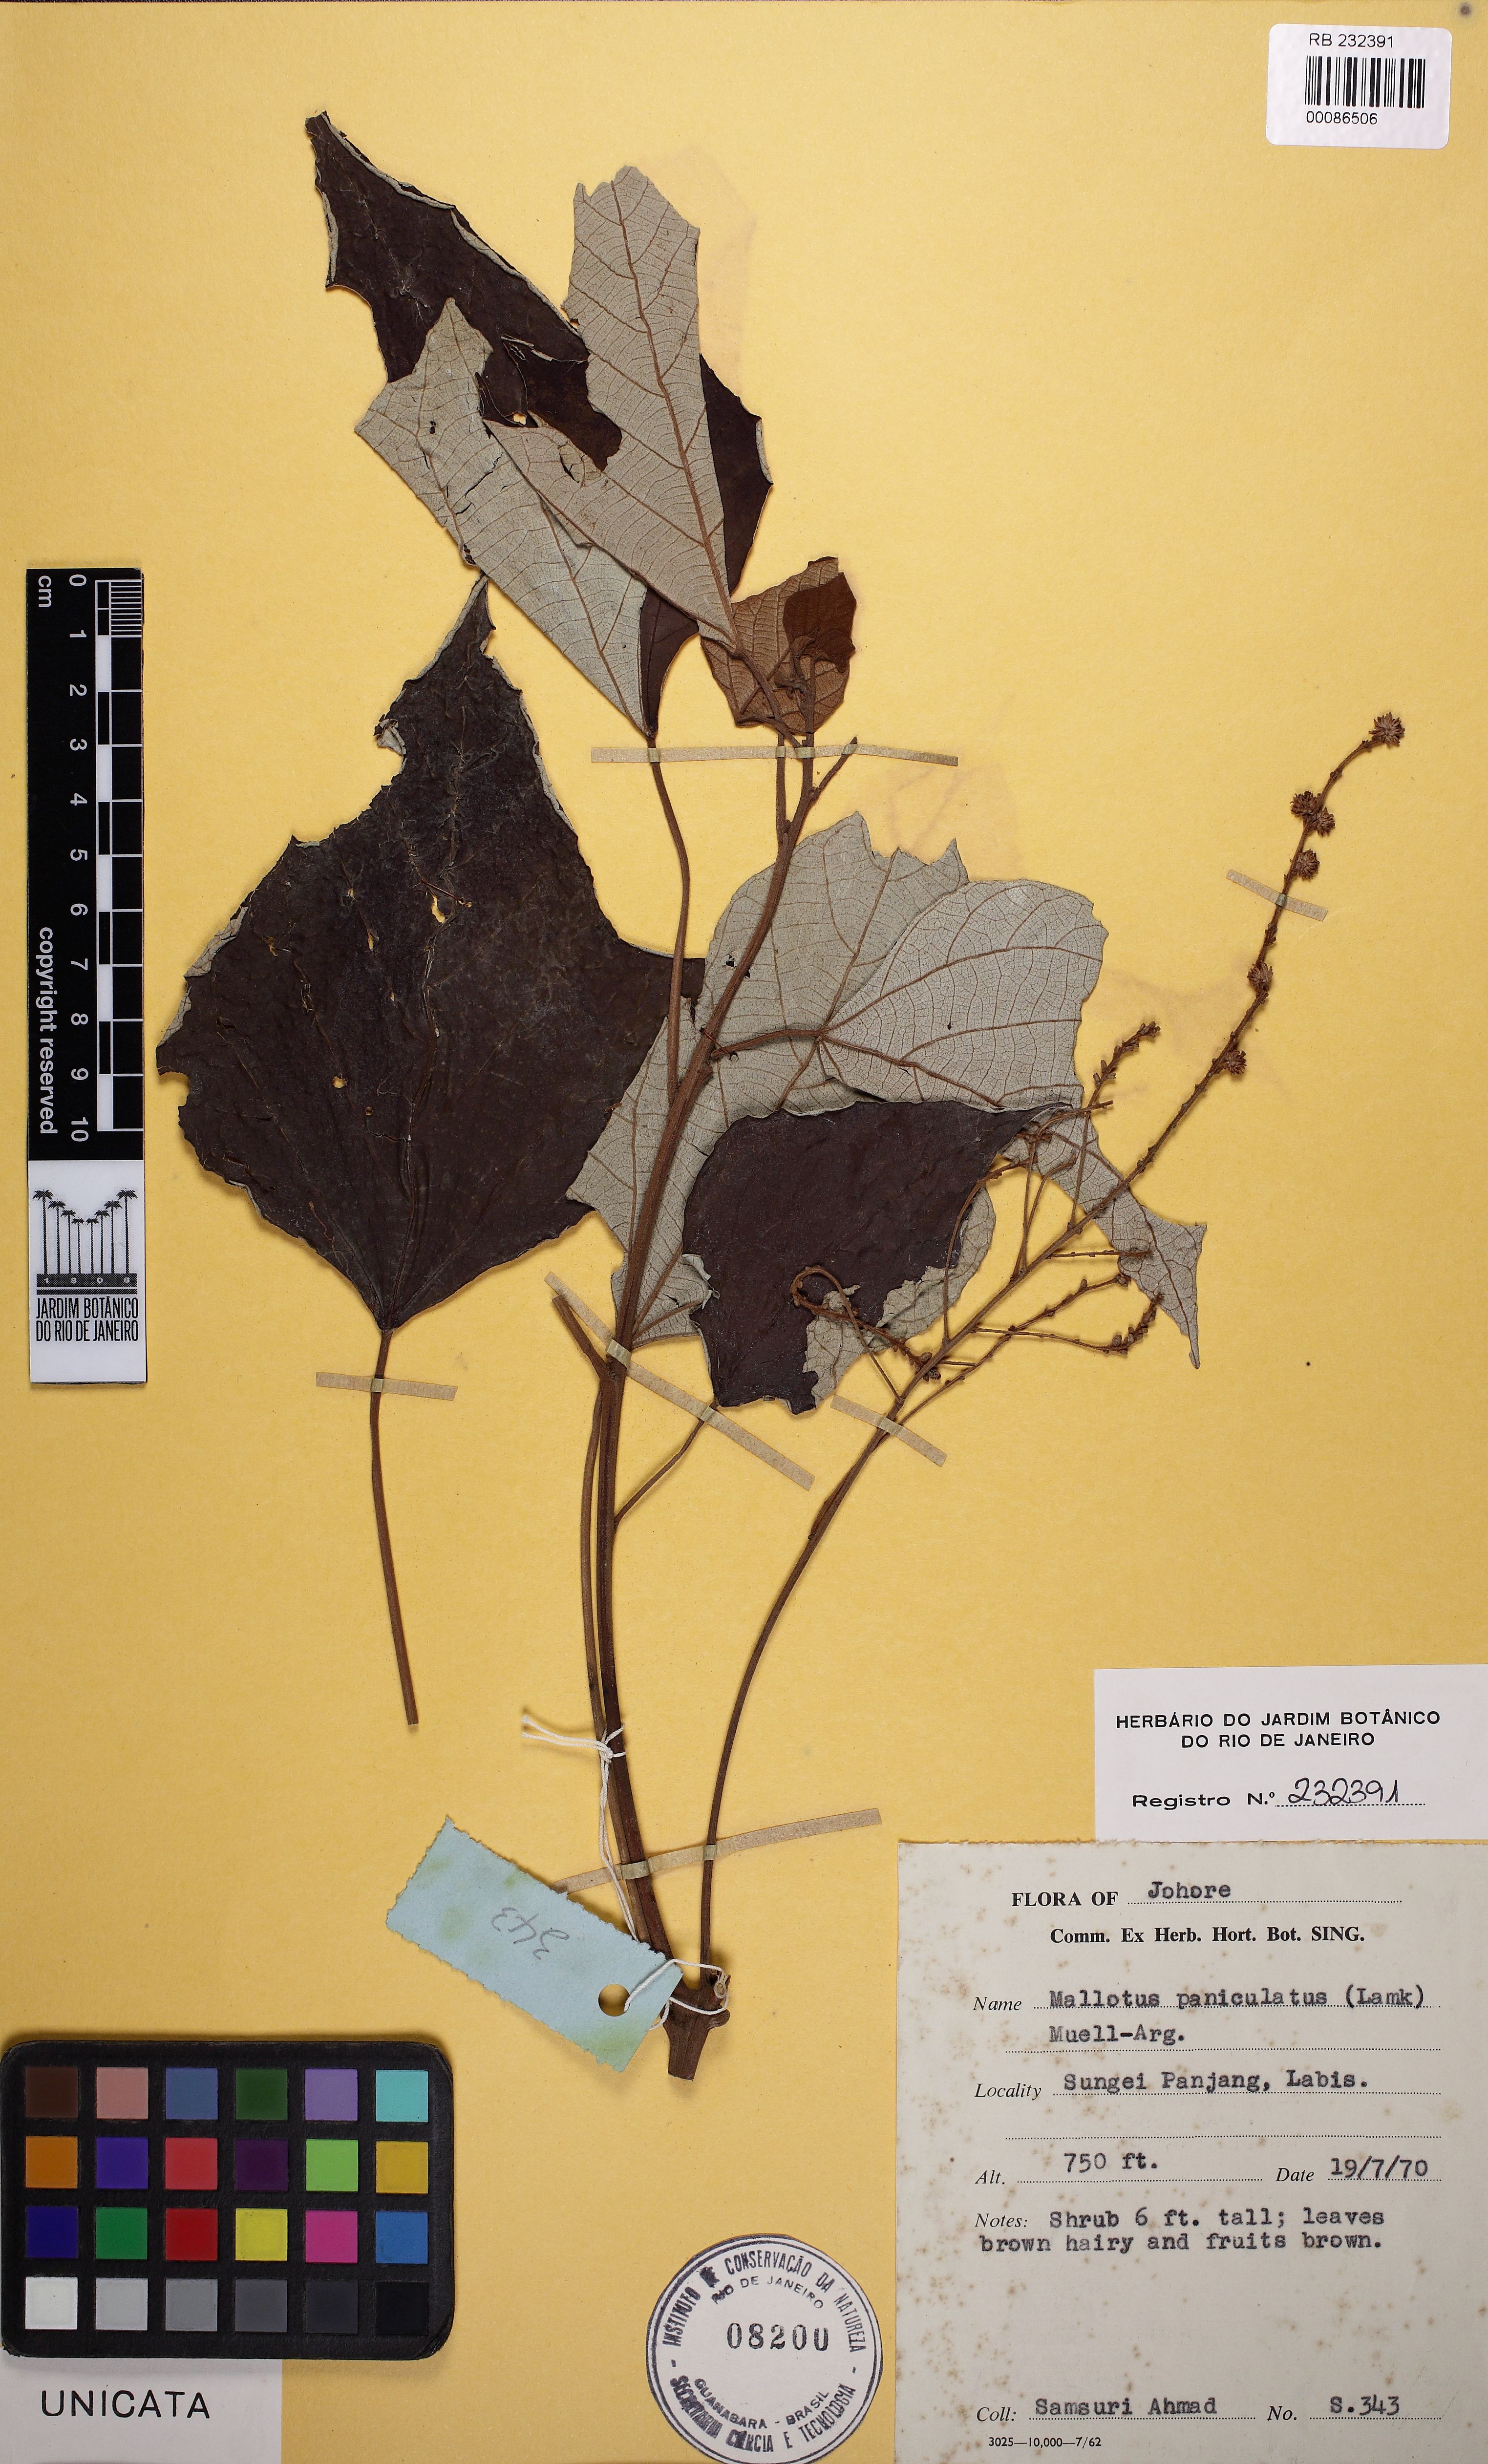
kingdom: Plantae
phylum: Tracheophyta
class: Magnoliopsida
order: Malpighiales
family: Euphorbiaceae
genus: Mallotus
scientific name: Mallotus paniculatus
